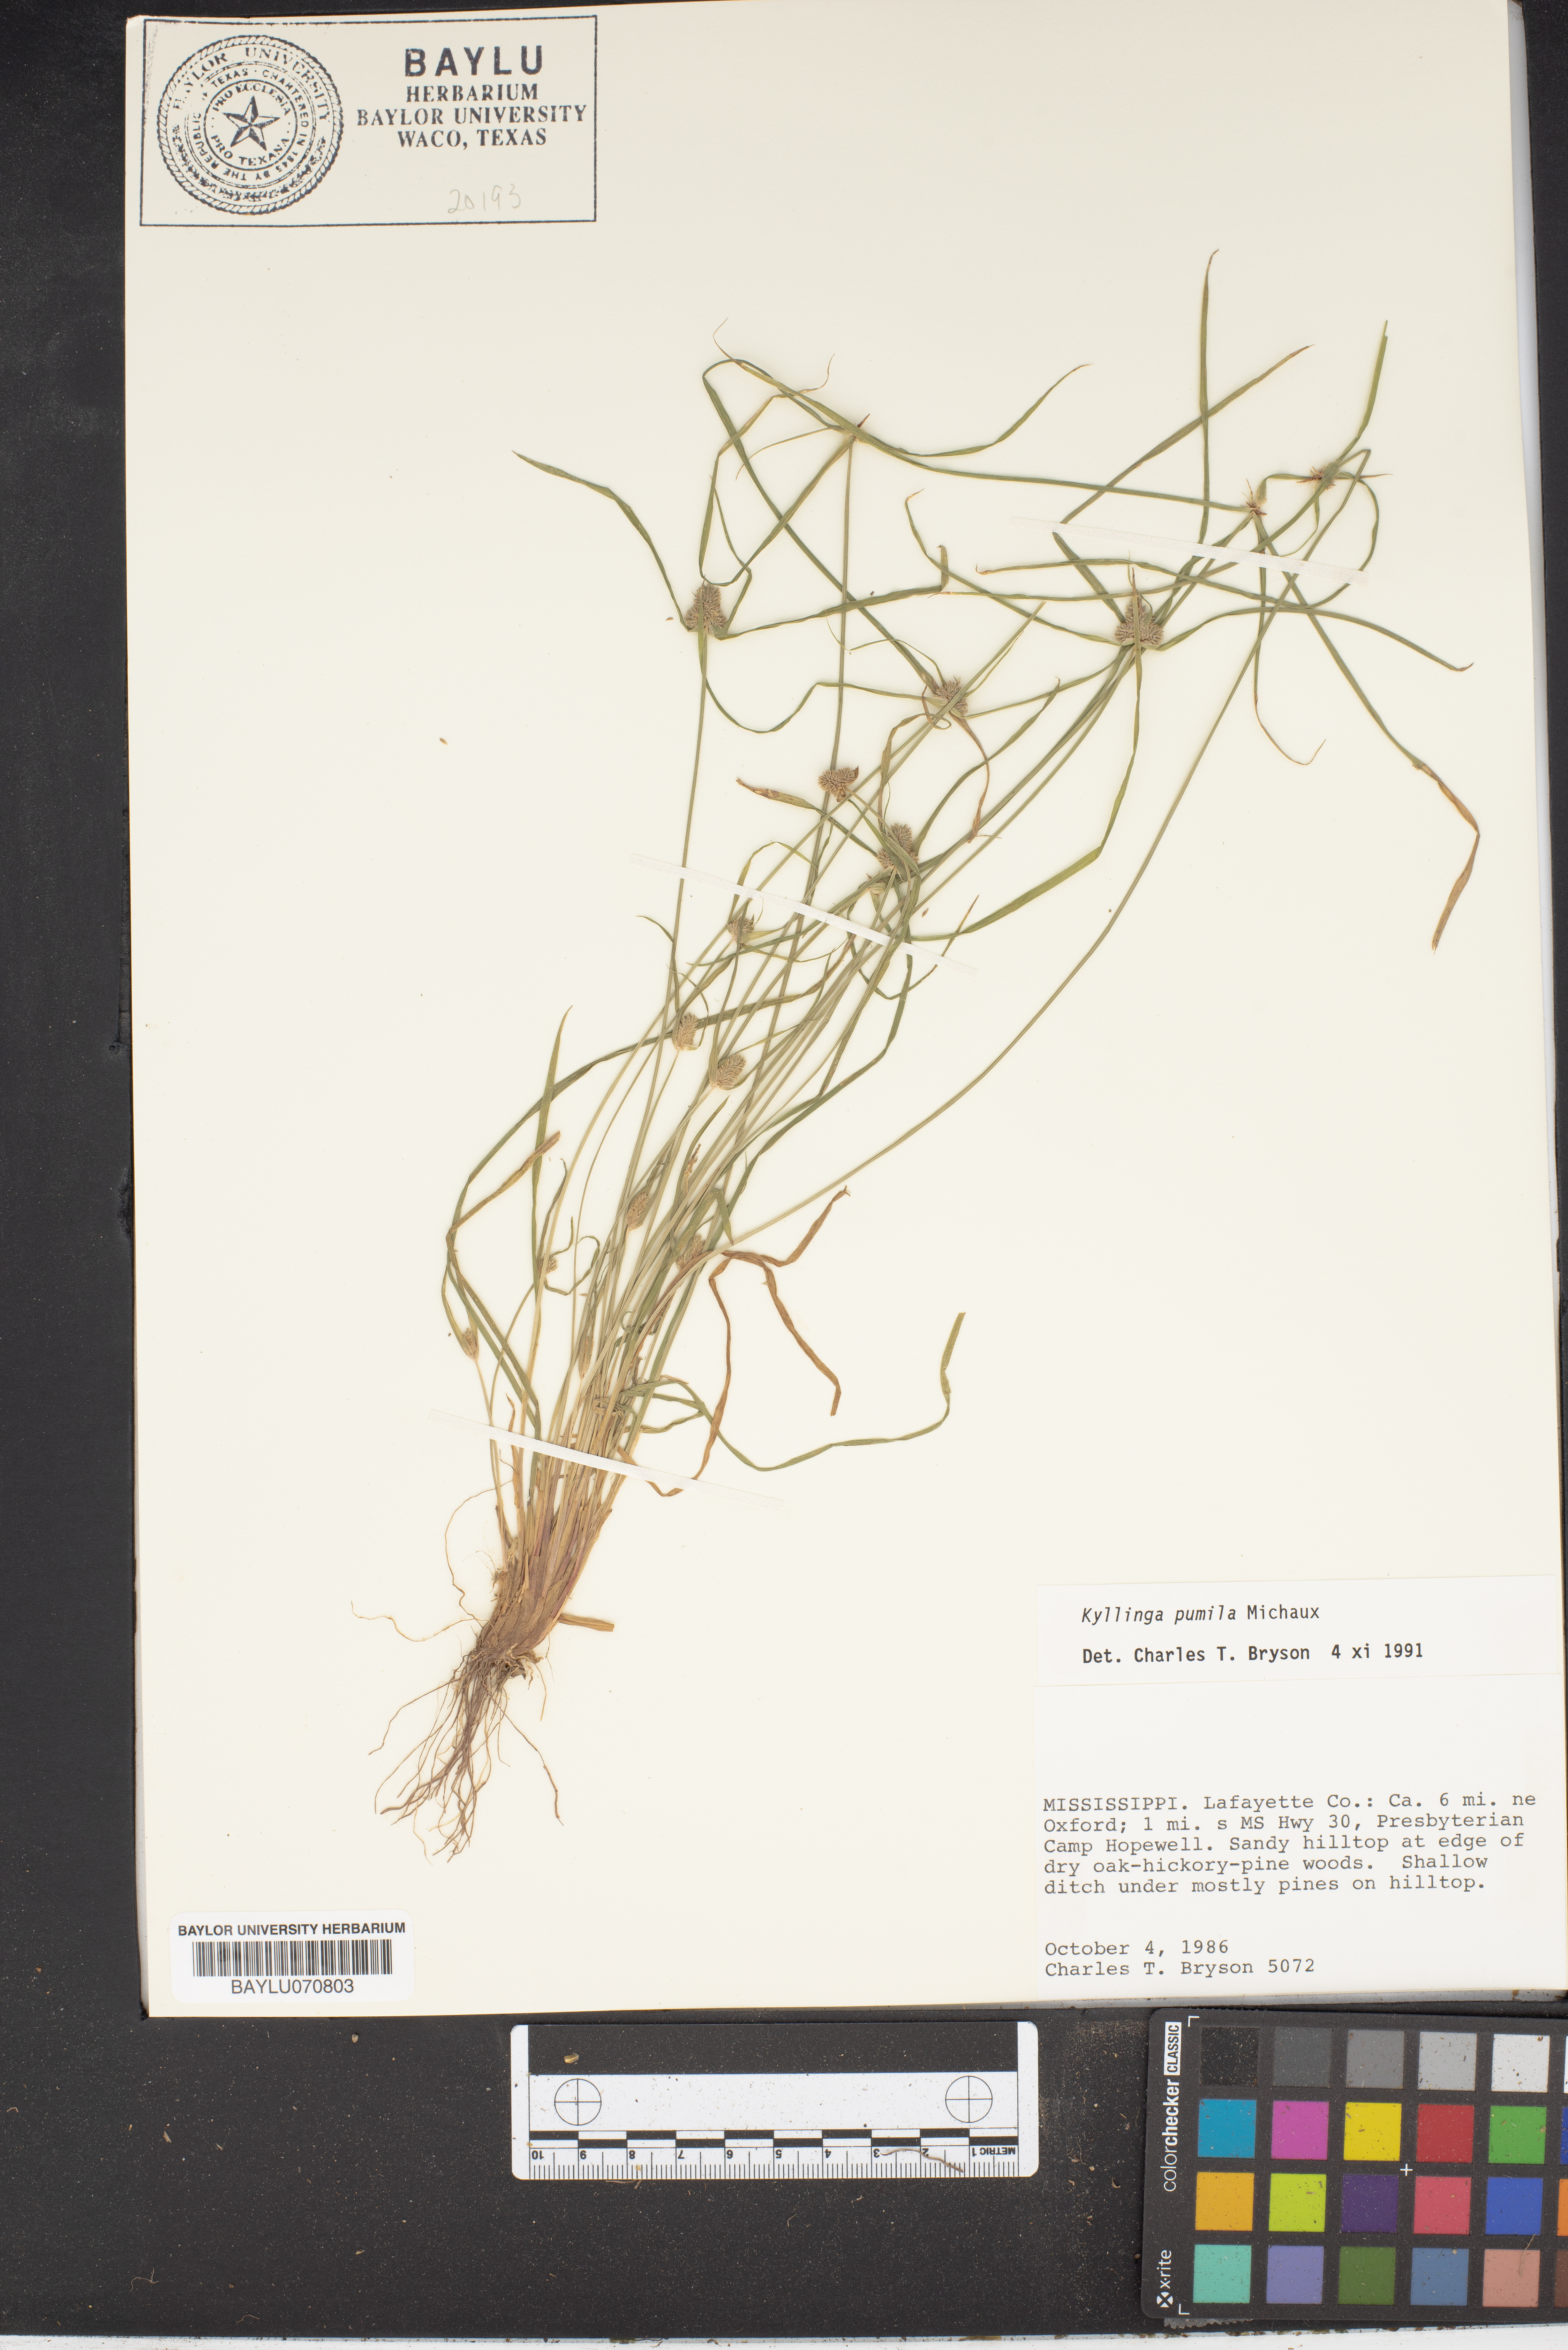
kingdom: Plantae
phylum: Tracheophyta
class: Liliopsida
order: Poales
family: Cyperaceae
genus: Cyperus
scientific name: Cyperus hortensis
